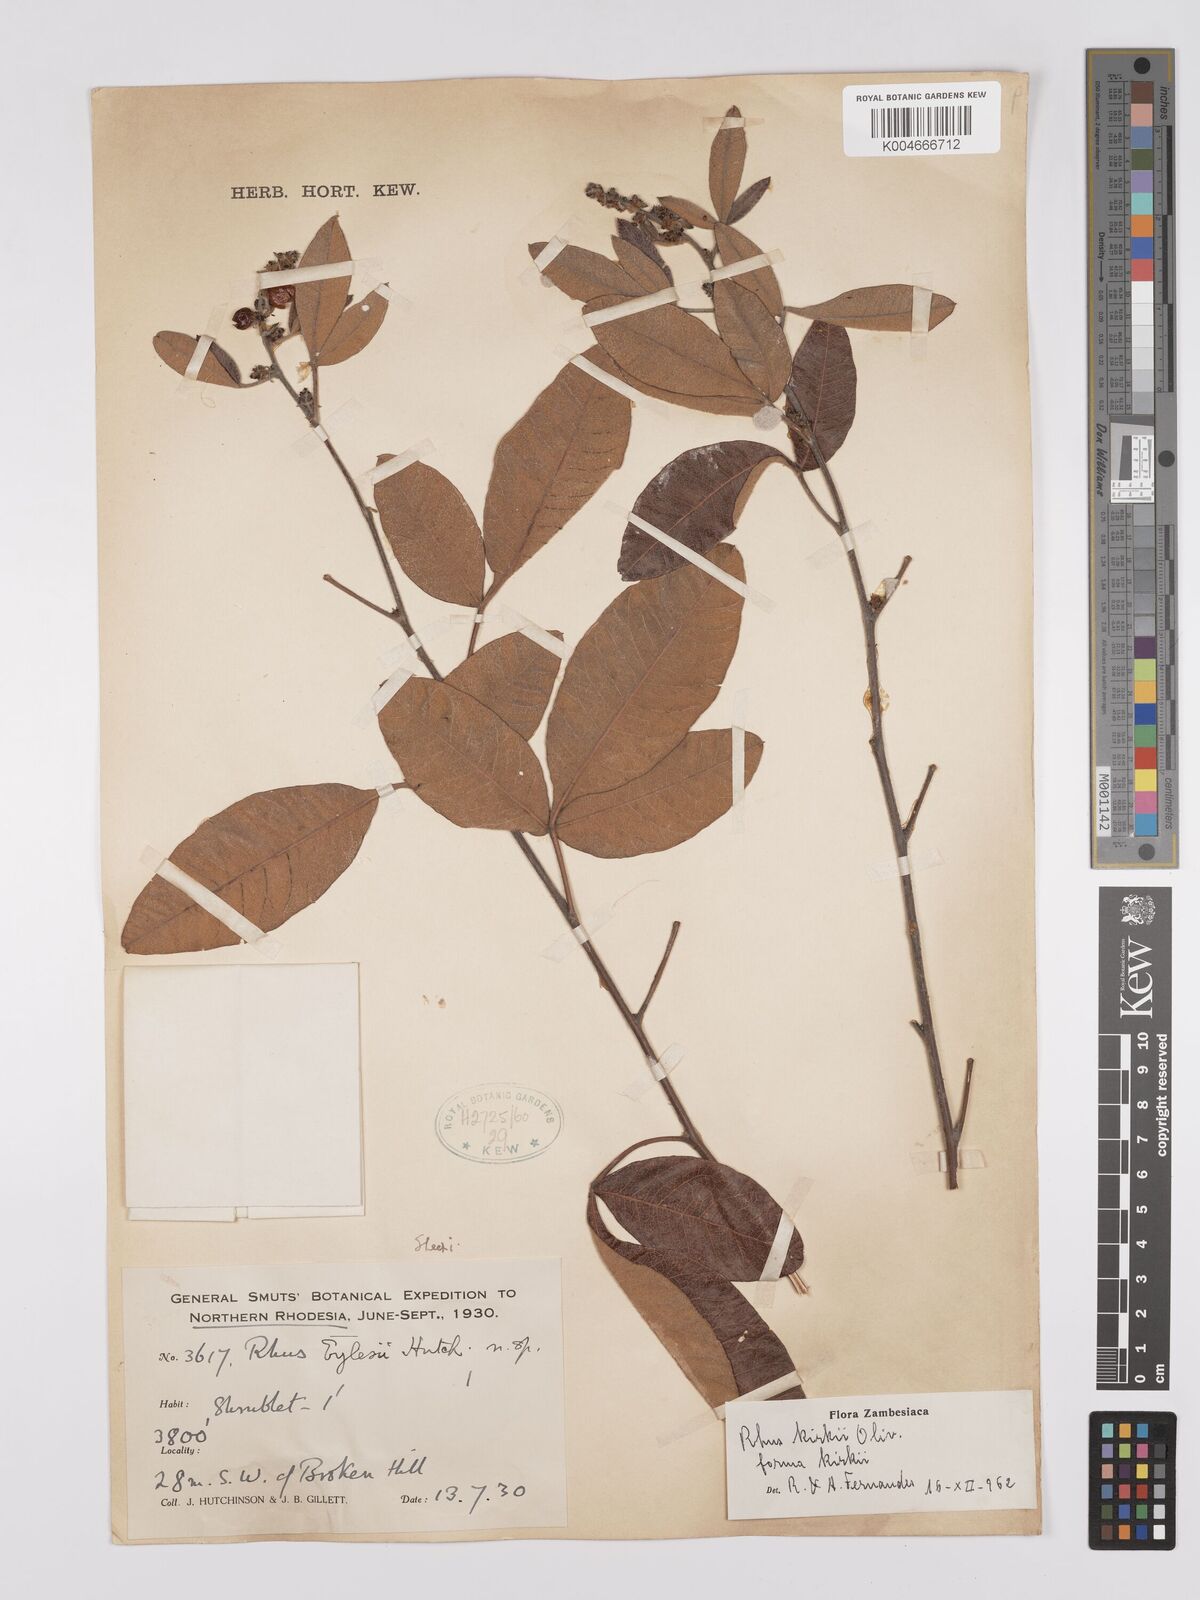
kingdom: Plantae
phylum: Tracheophyta
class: Magnoliopsida
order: Sapindales
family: Anacardiaceae
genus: Searsia
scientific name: Searsia kirkii
